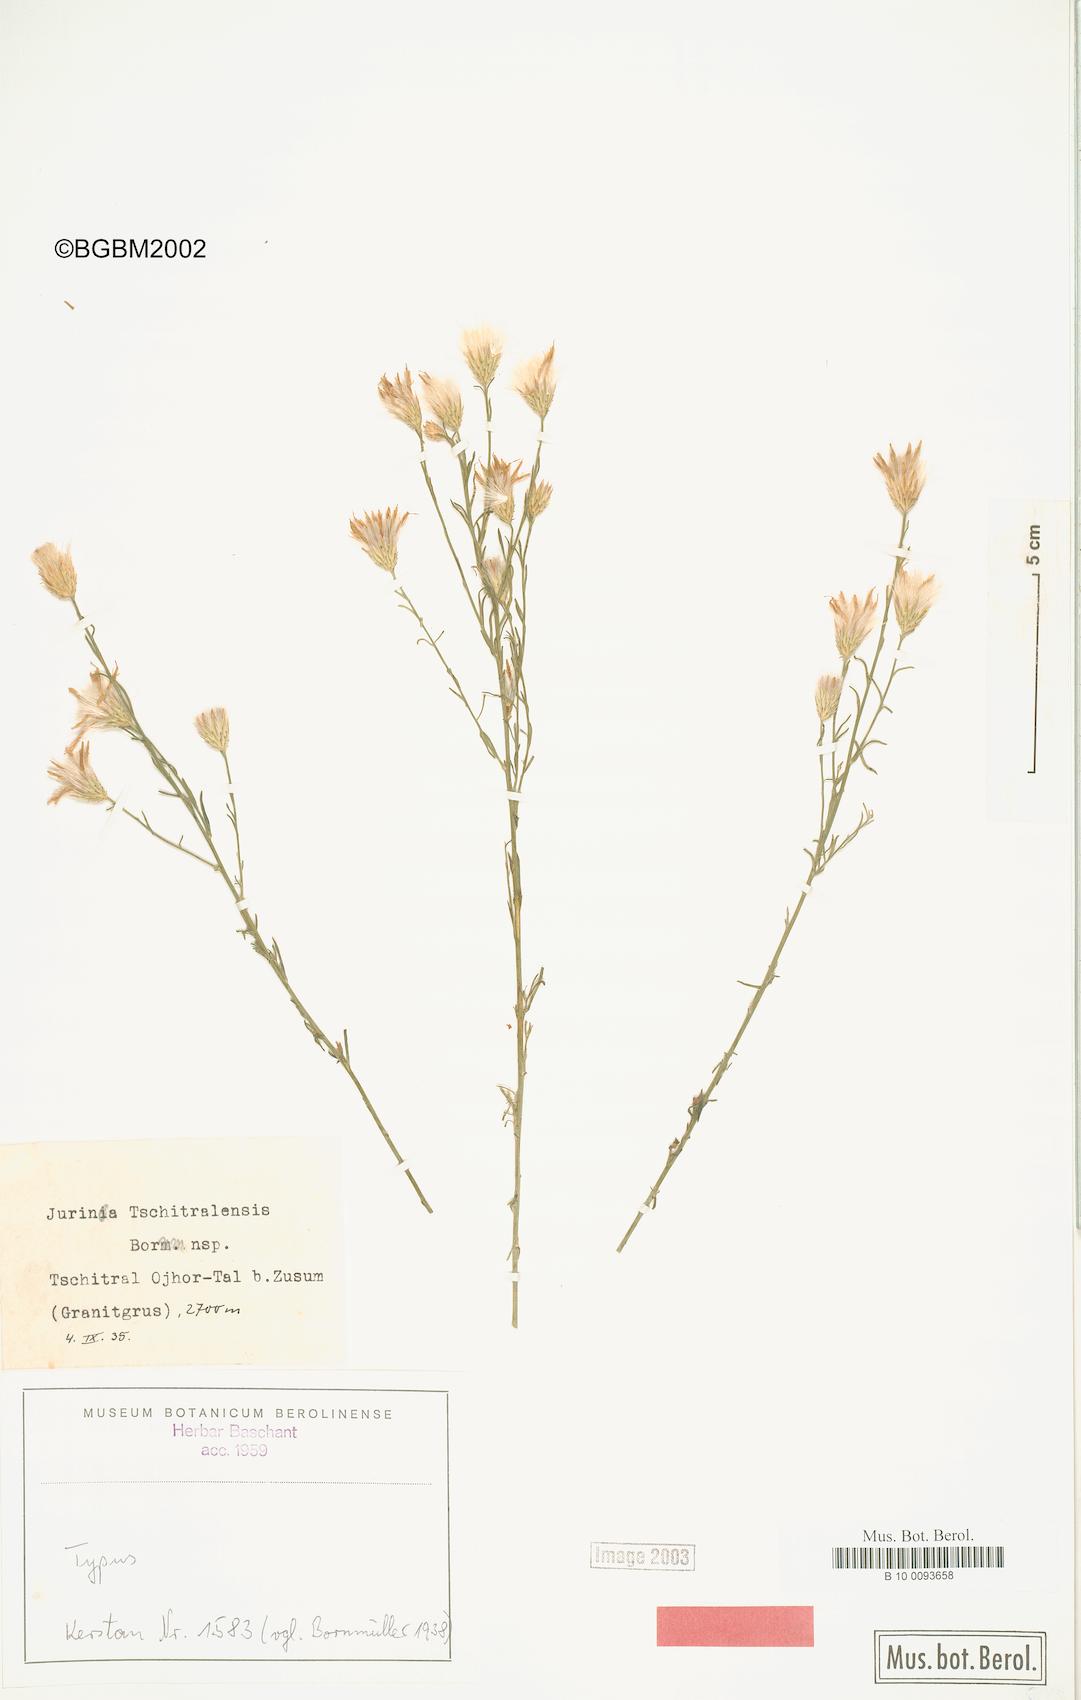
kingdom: Plantae
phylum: Tracheophyta
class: Magnoliopsida
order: Asterales
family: Asteraceae
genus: Jurinea
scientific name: Jurinea leptophylla
